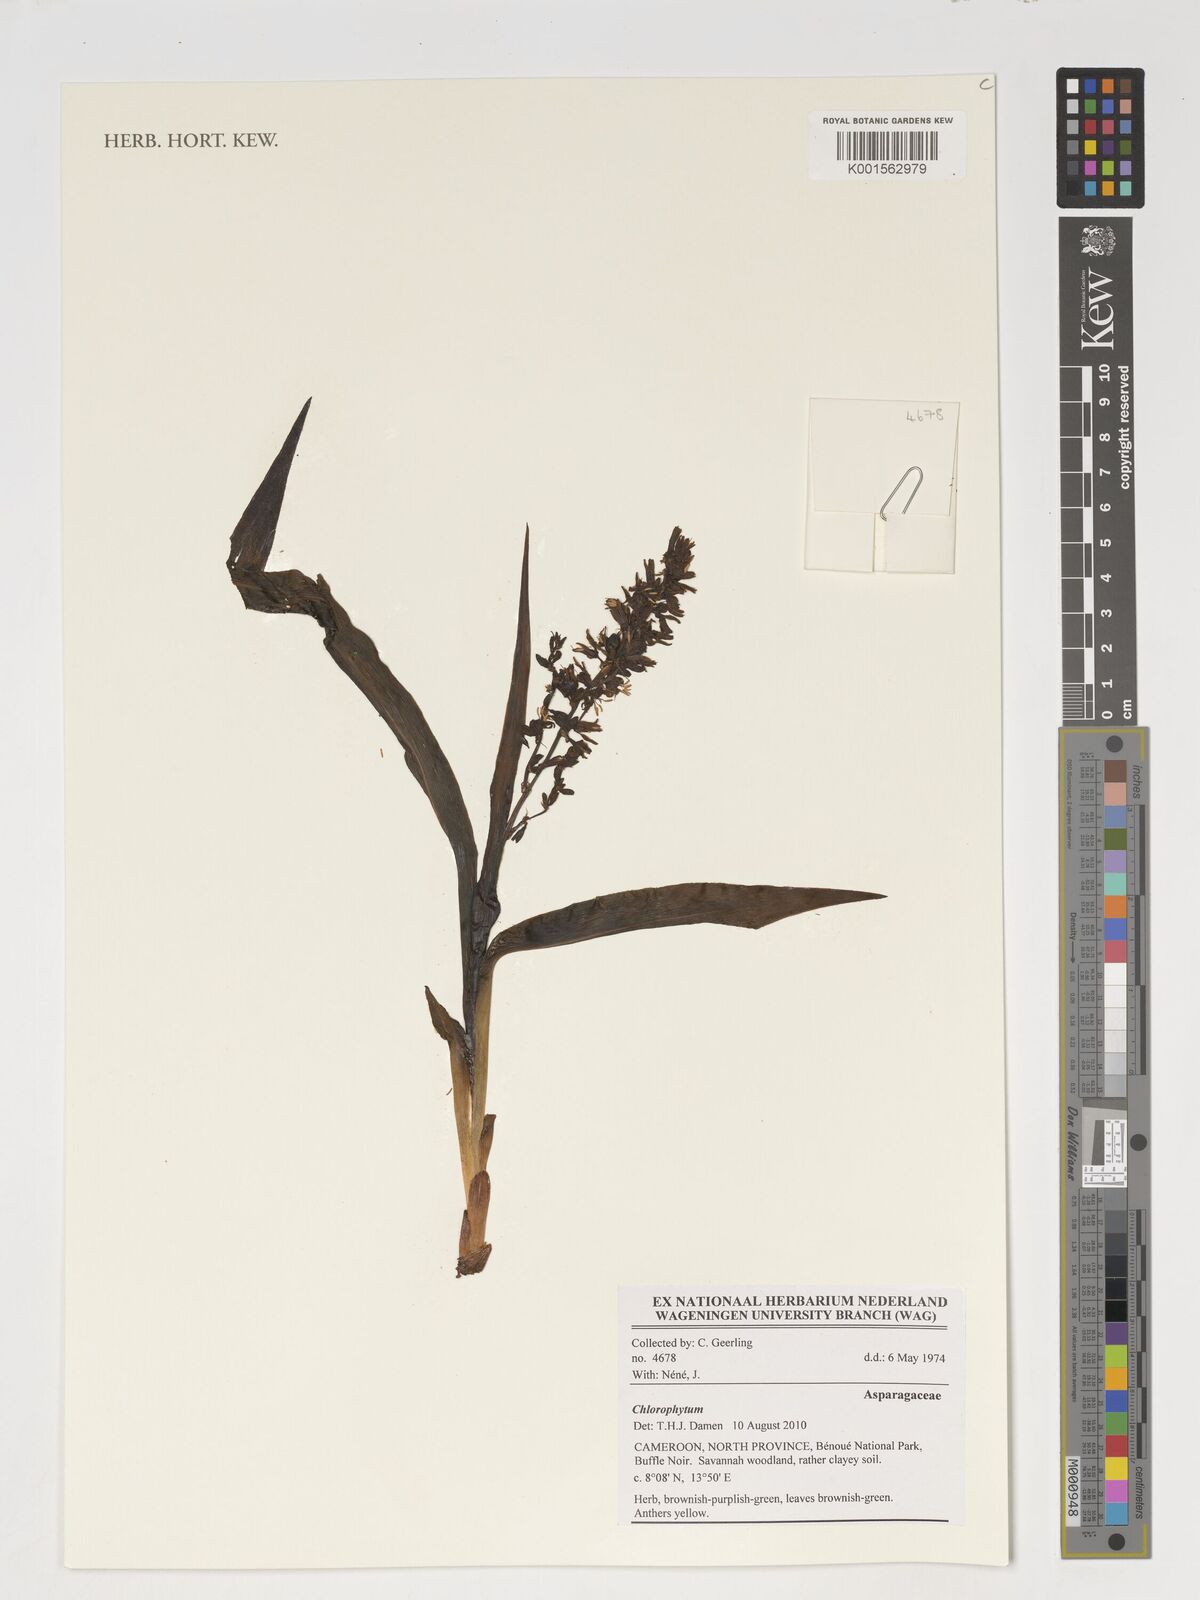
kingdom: Plantae
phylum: Tracheophyta
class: Liliopsida
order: Asparagales
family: Asparagaceae
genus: Chlorophytum
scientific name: Chlorophytum
